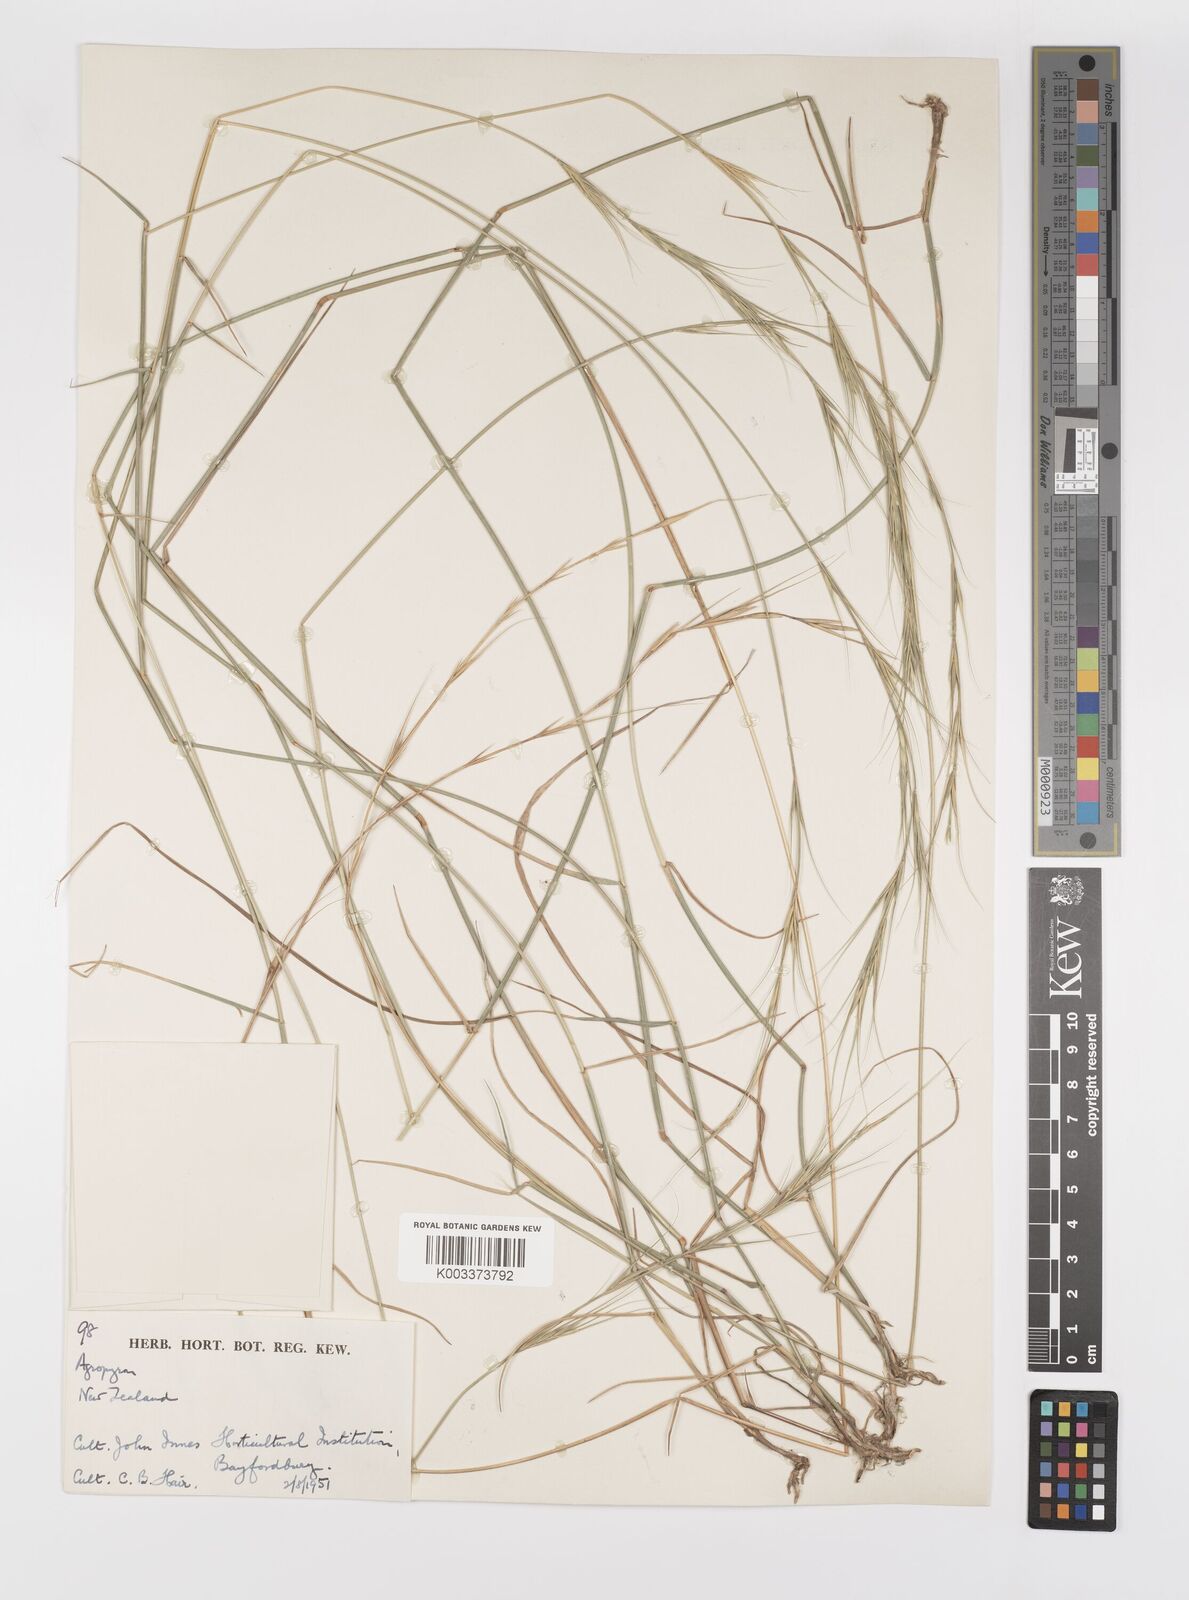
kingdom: Plantae
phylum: Tracheophyta
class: Liliopsida
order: Poales
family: Poaceae
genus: Elymus
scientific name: Elymus
